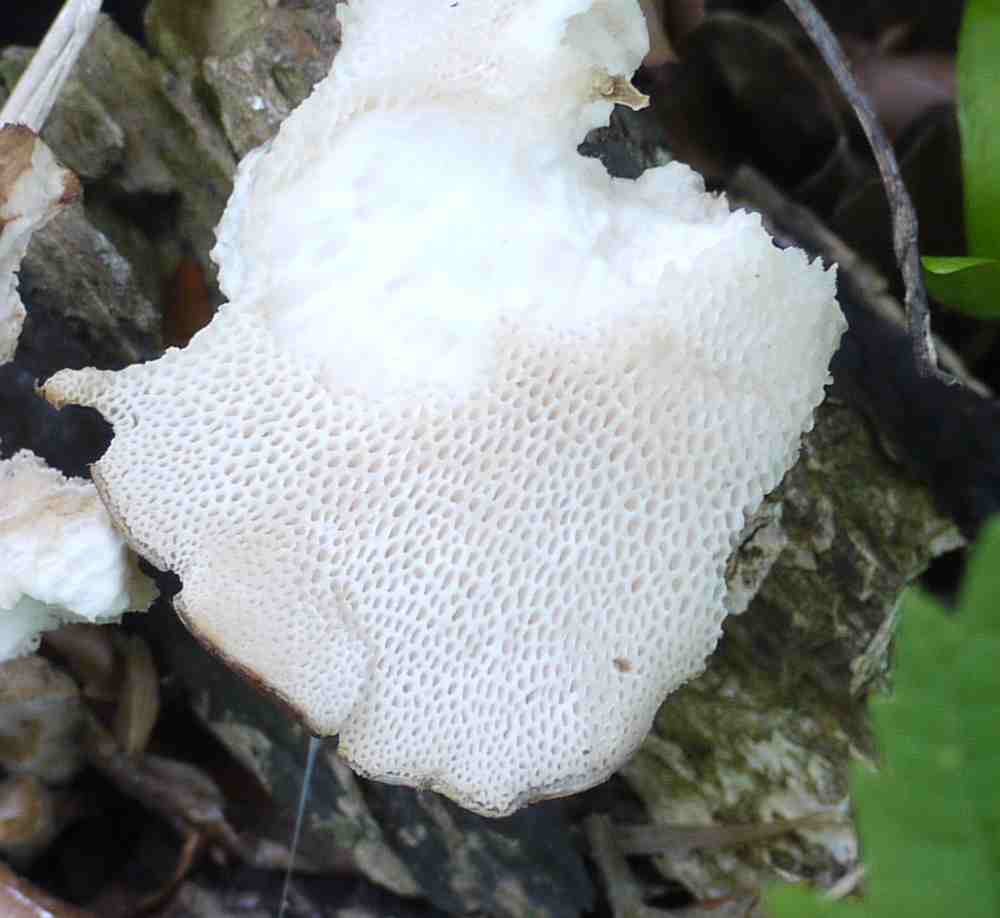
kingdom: Fungi
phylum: Basidiomycota
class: Agaricomycetes
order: Polyporales
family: Polyporaceae
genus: Polyporus
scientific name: Polyporus tuberaster
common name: knoldet stilkporesvamp
